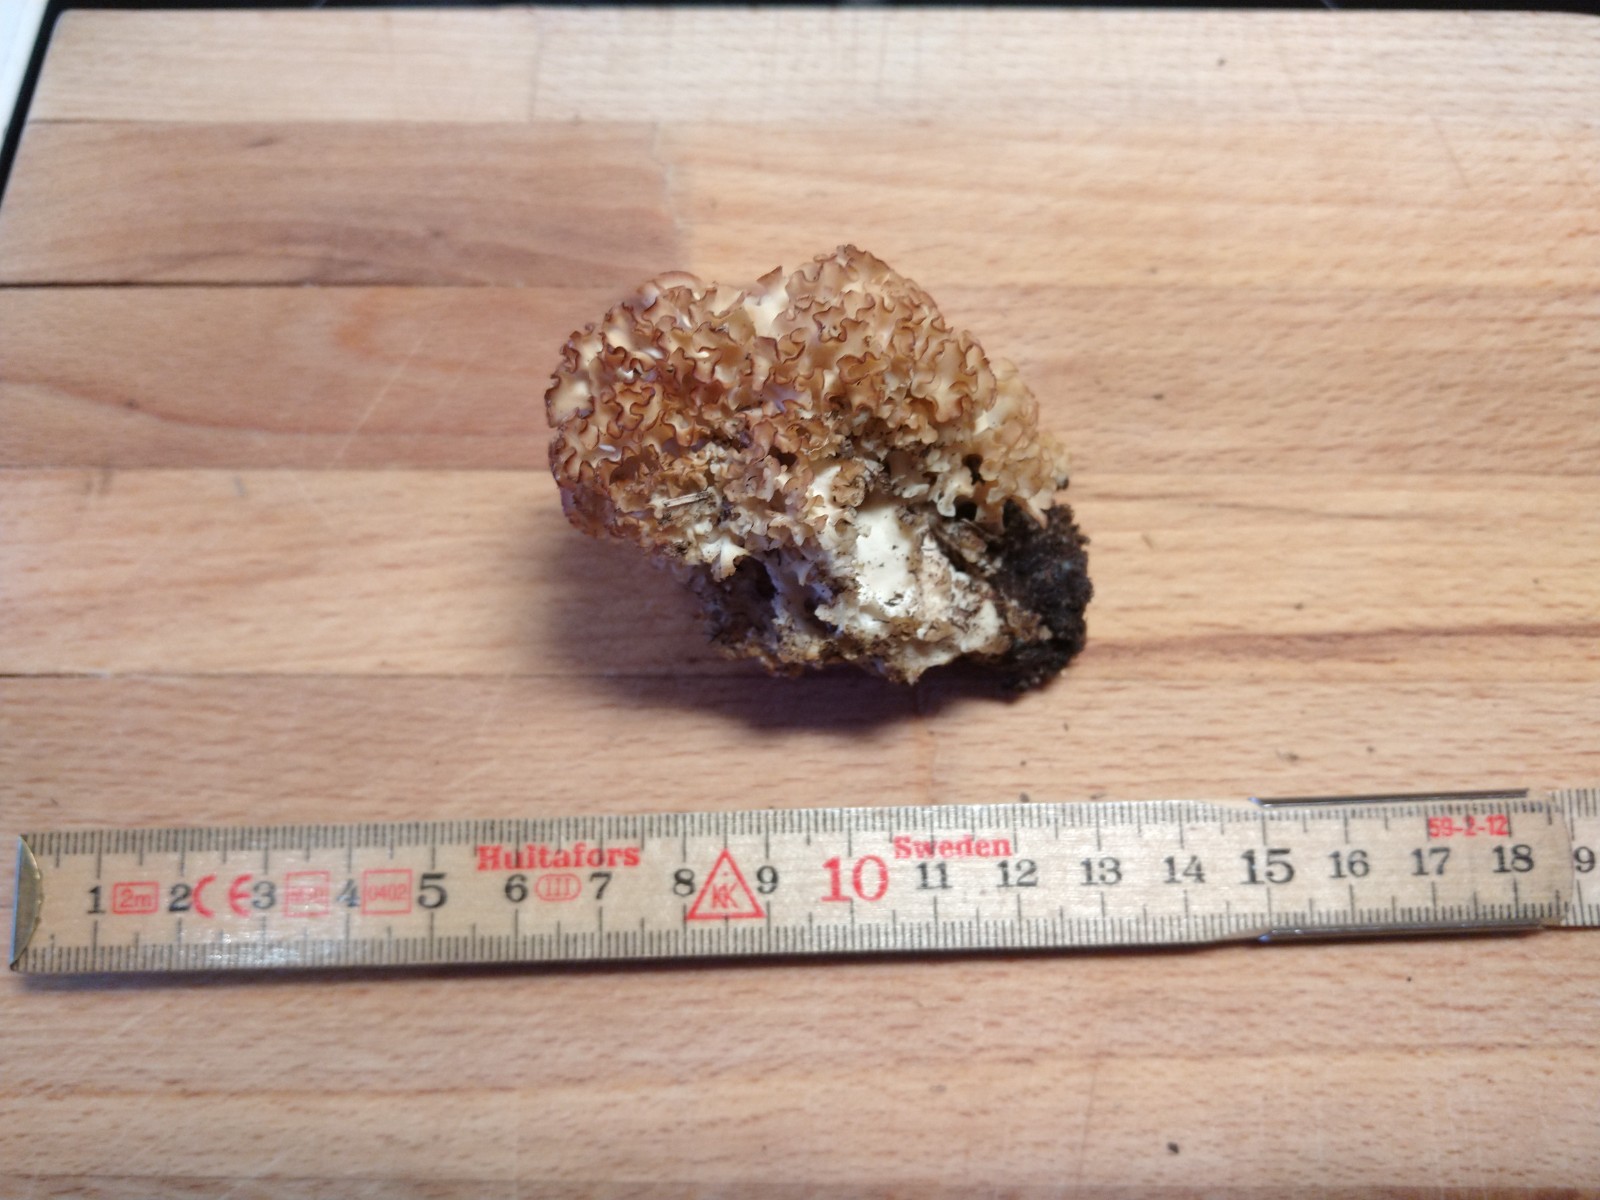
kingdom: Fungi
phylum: Basidiomycota
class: Agaricomycetes
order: Polyporales
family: Sparassidaceae
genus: Sparassis
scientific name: Sparassis crispa
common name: kruset blomkålssvamp
